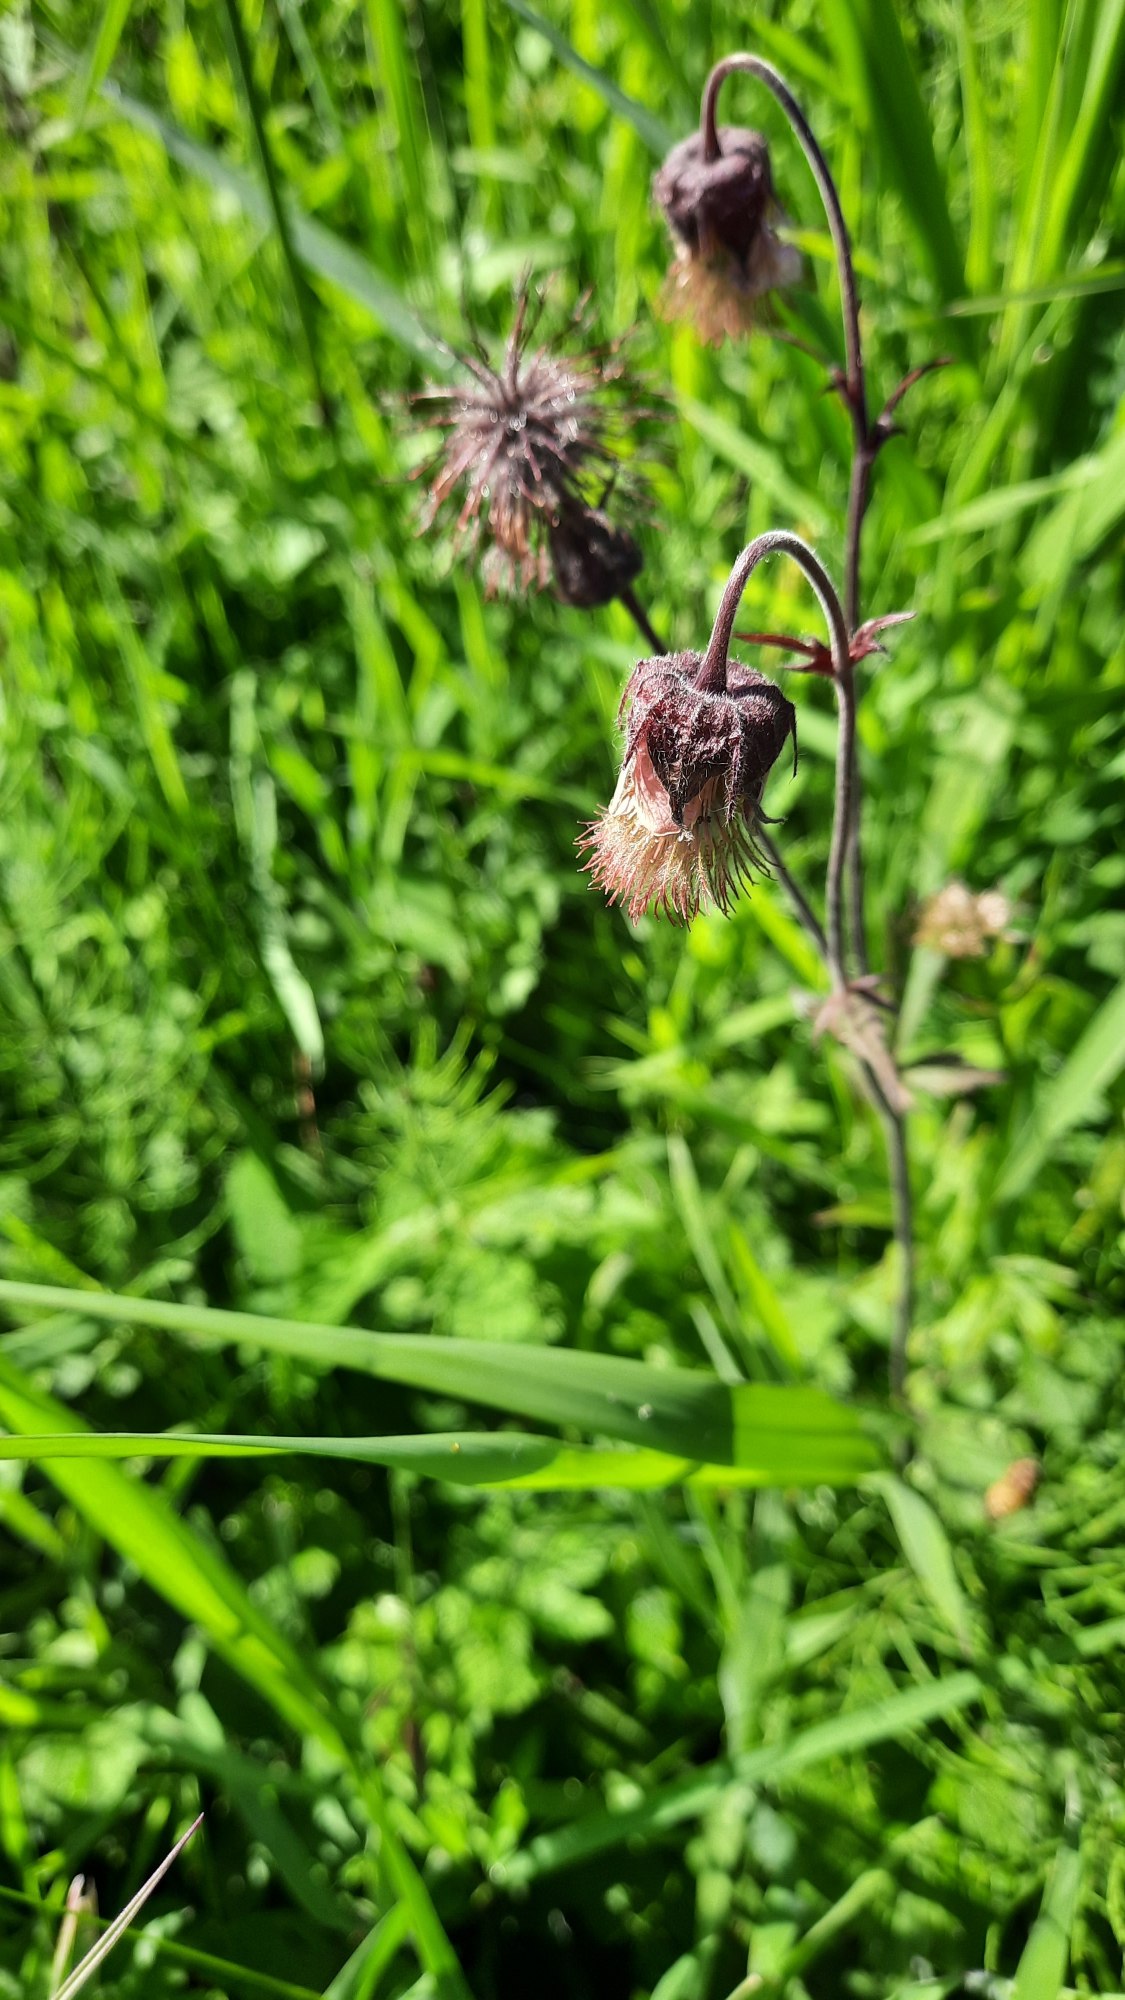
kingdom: Plantae
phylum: Tracheophyta
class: Magnoliopsida
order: Rosales
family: Rosaceae
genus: Geum
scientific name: Geum rivale
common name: Eng-nellikerod
